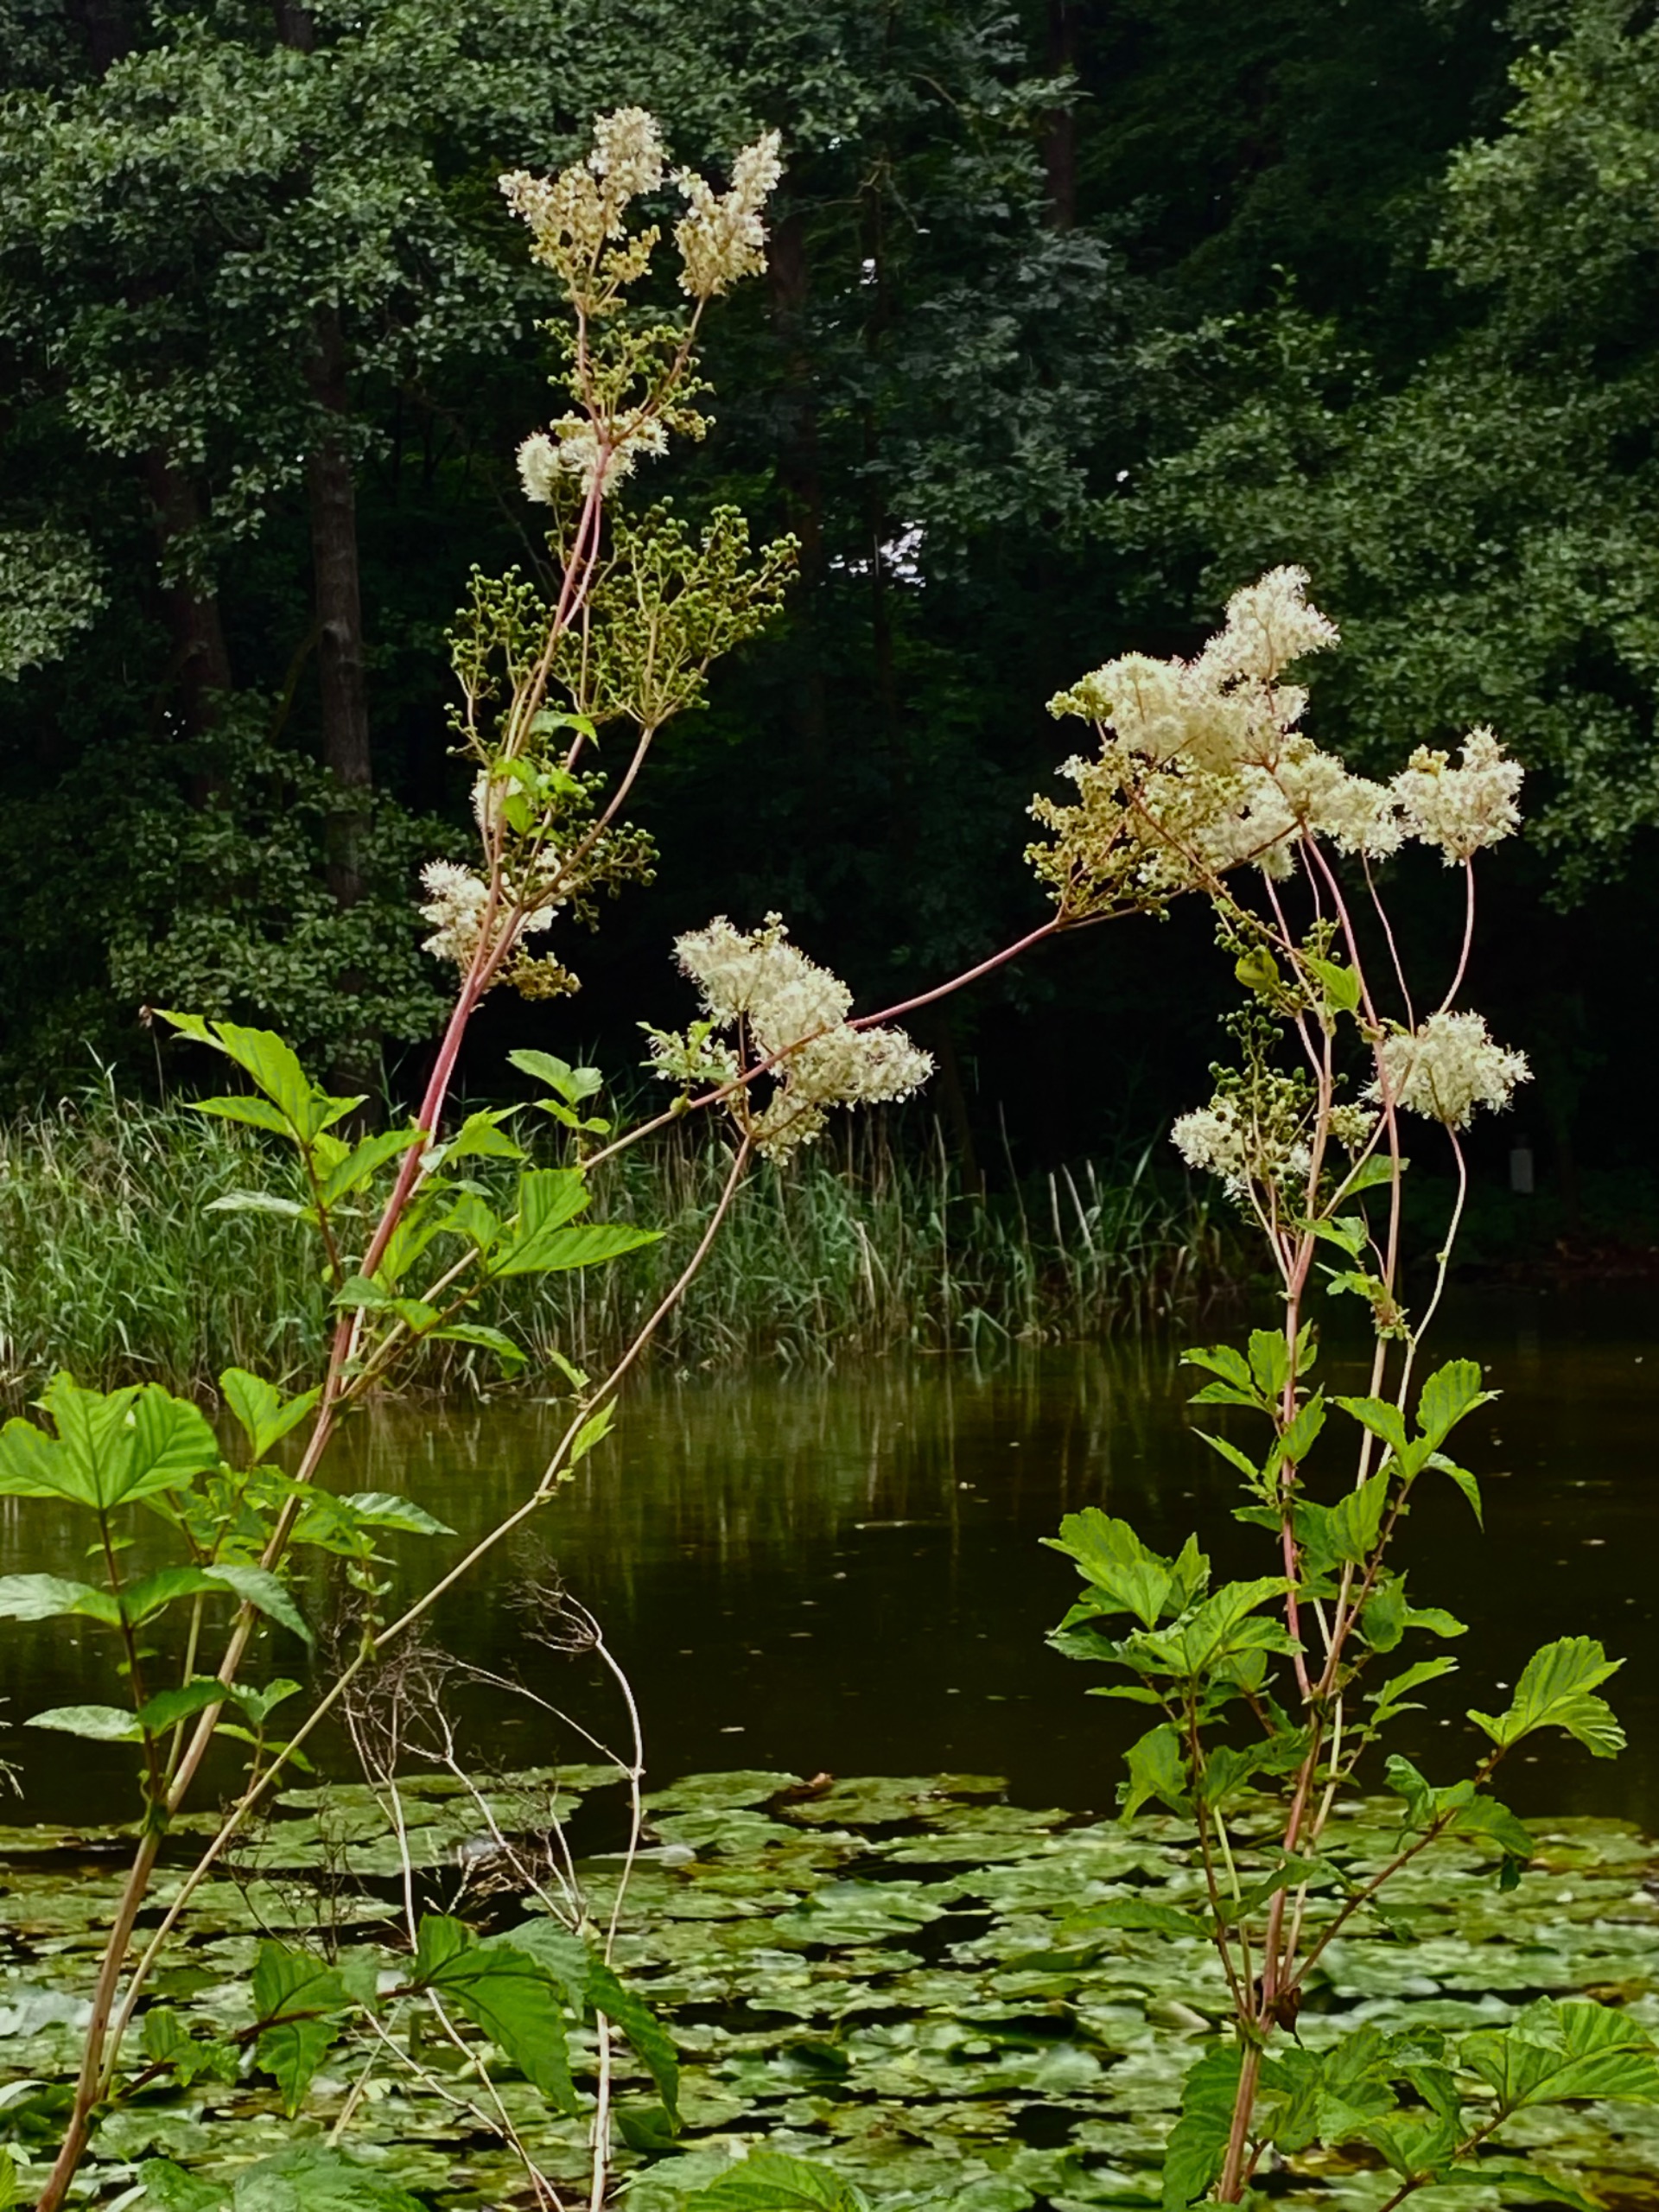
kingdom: Plantae
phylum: Tracheophyta
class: Magnoliopsida
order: Rosales
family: Rosaceae
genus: Filipendula
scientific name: Filipendula ulmaria
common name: Almindelig mjødurt
